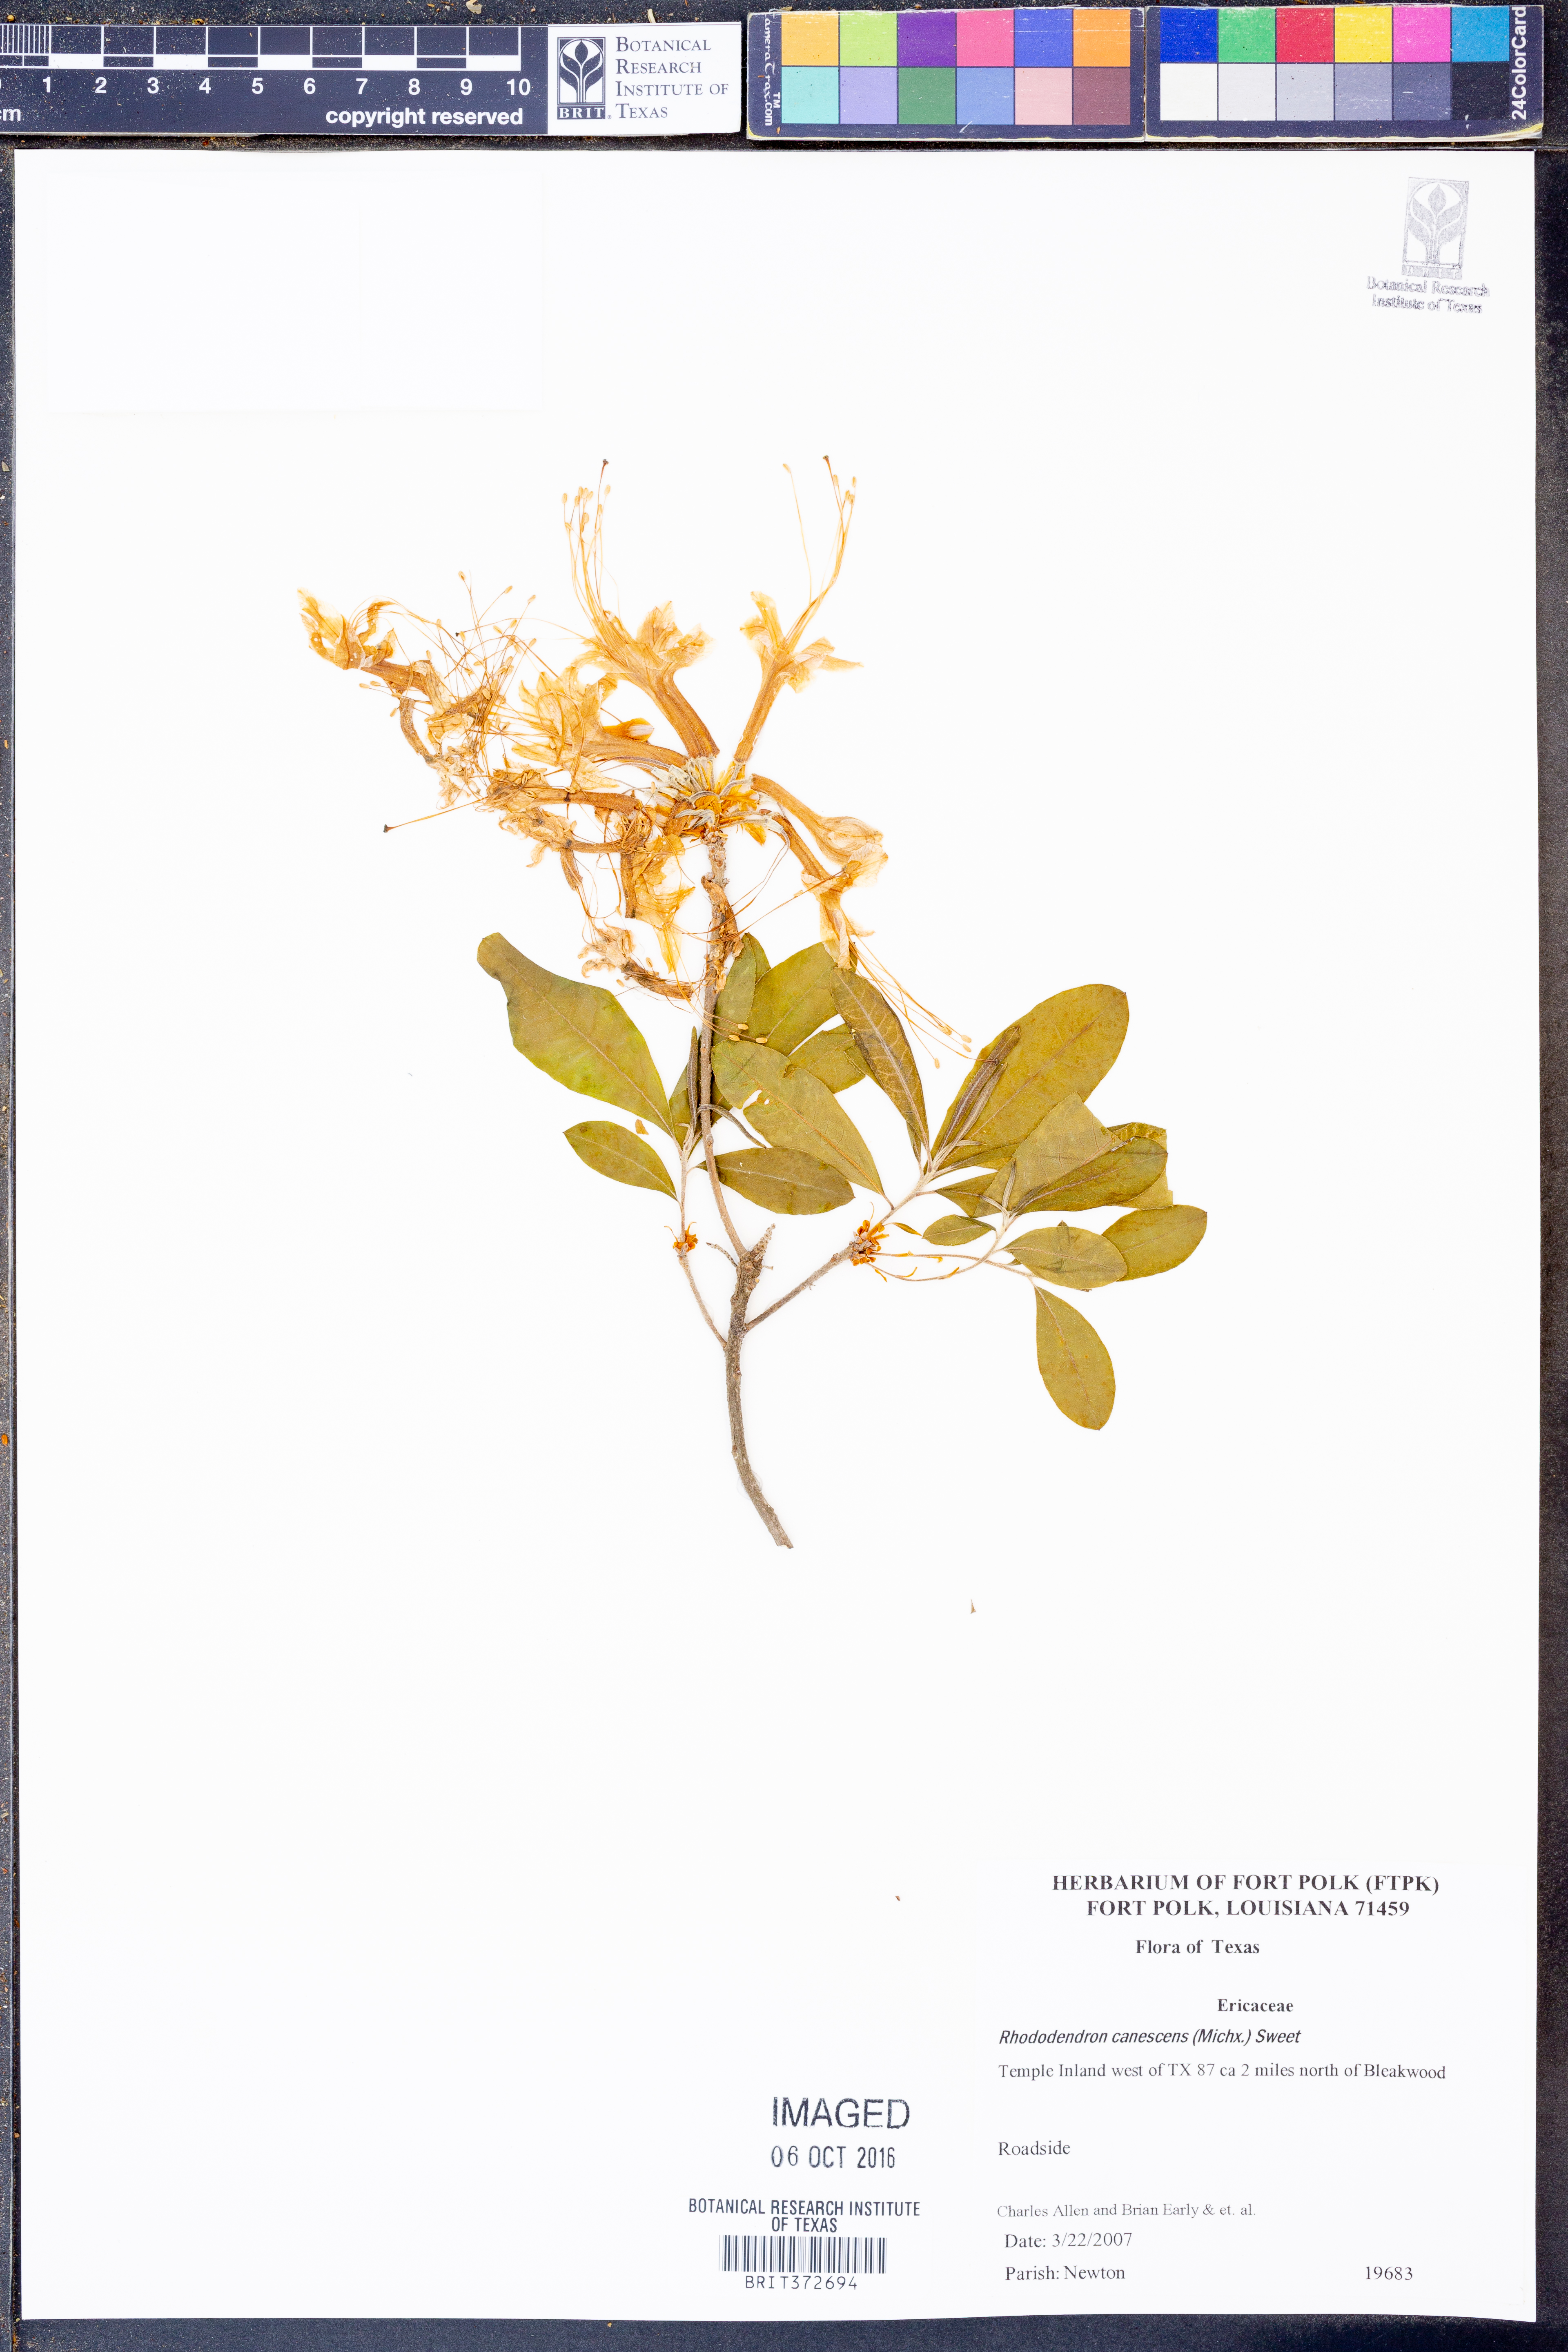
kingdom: Plantae
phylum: Tracheophyta
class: Magnoliopsida
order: Ericales
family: Ericaceae
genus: Rhododendron
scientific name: Rhododendron canescens
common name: Mountain azalea
